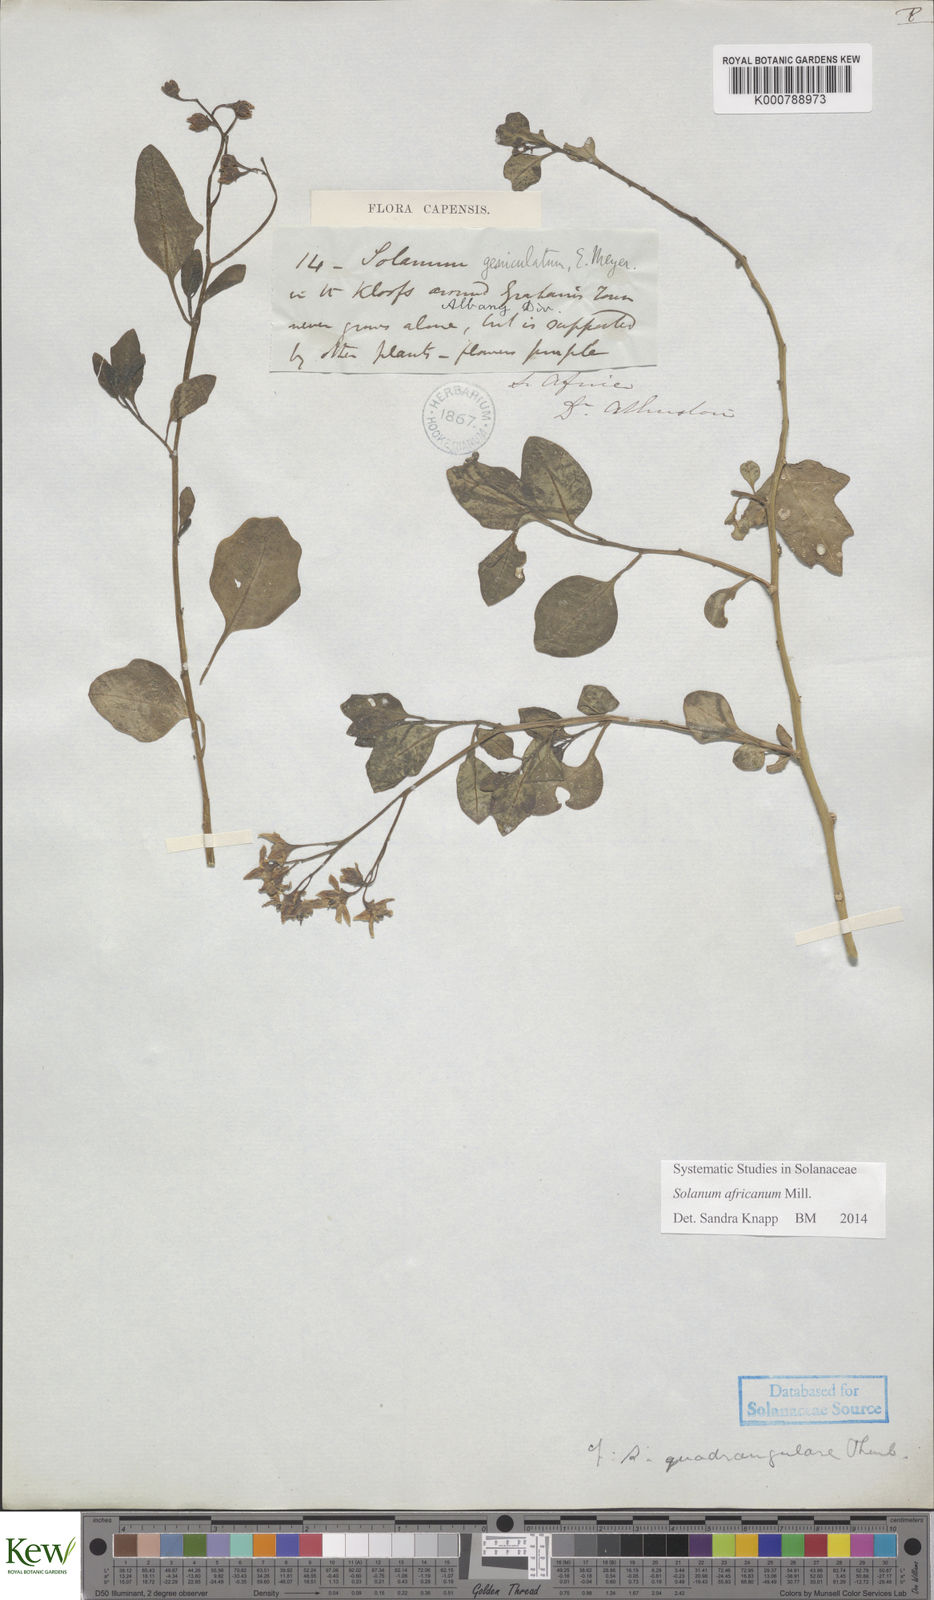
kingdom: Plantae
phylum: Tracheophyta
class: Magnoliopsida
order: Solanales
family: Solanaceae
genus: Solanum
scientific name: Solanum africanum
